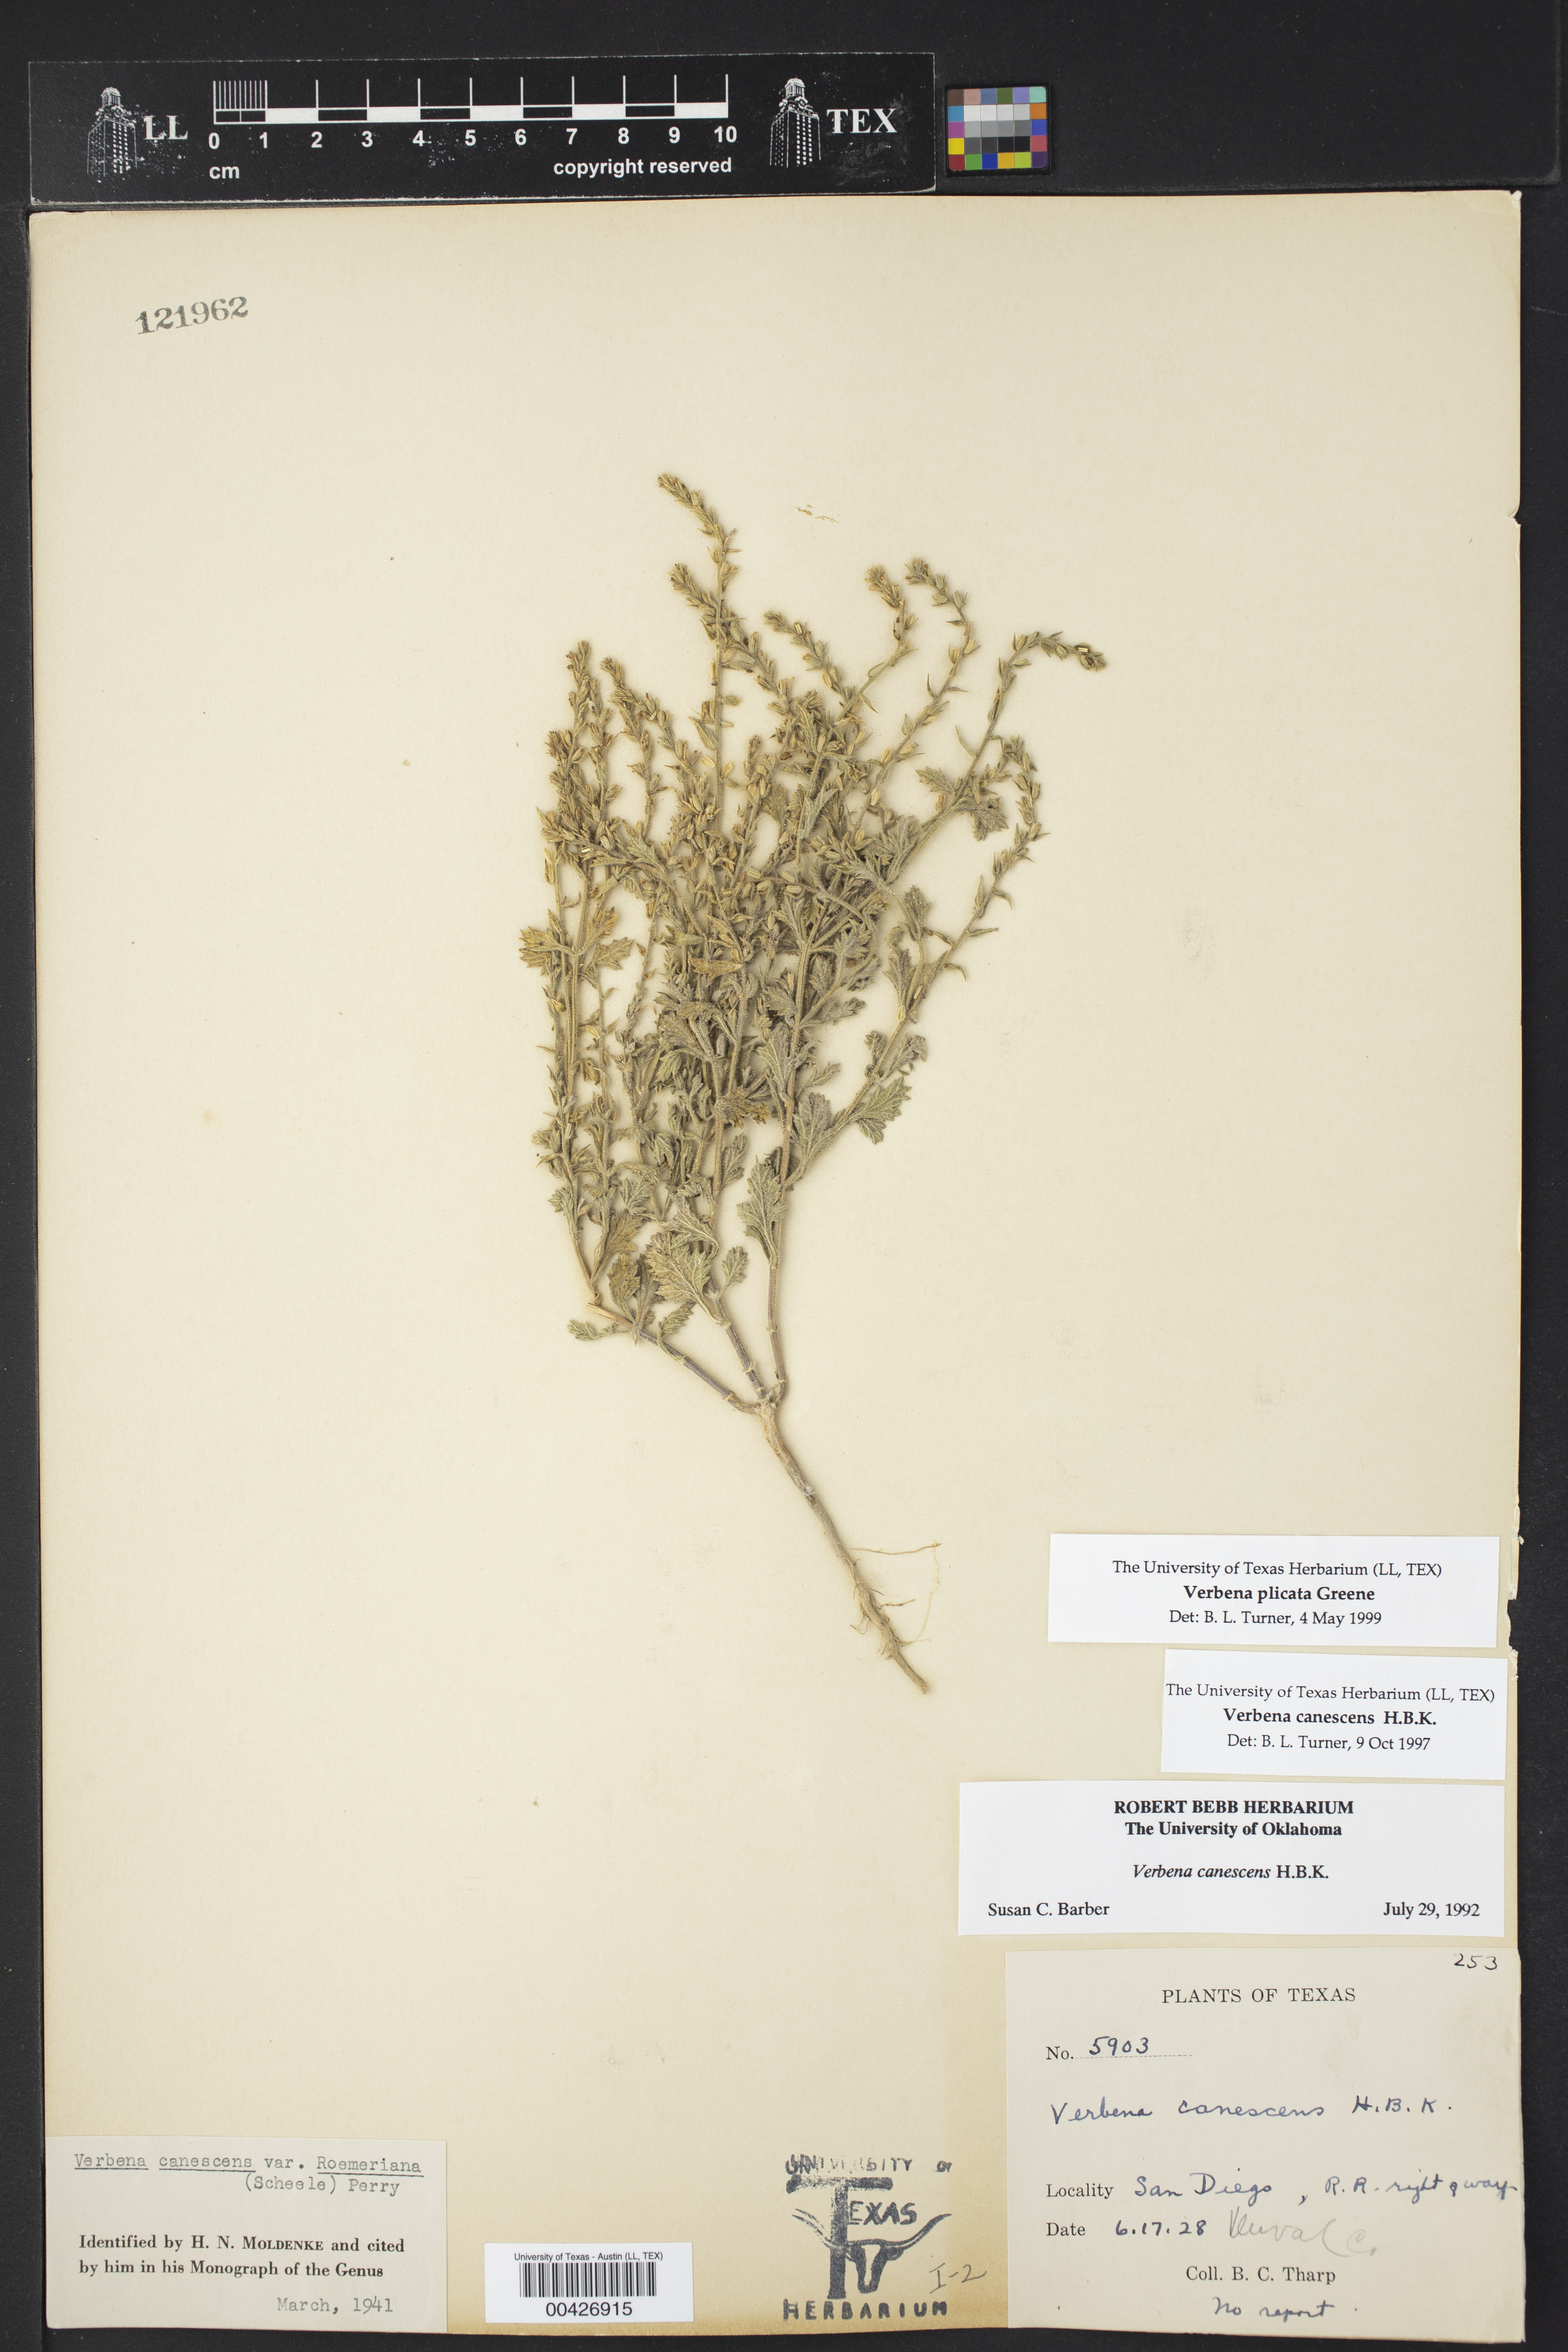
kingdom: Plantae
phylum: Tracheophyta
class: Magnoliopsida
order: Lamiales
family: Verbenaceae
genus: Verbena
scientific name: Verbena plicata
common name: Fan-leaf vervain
